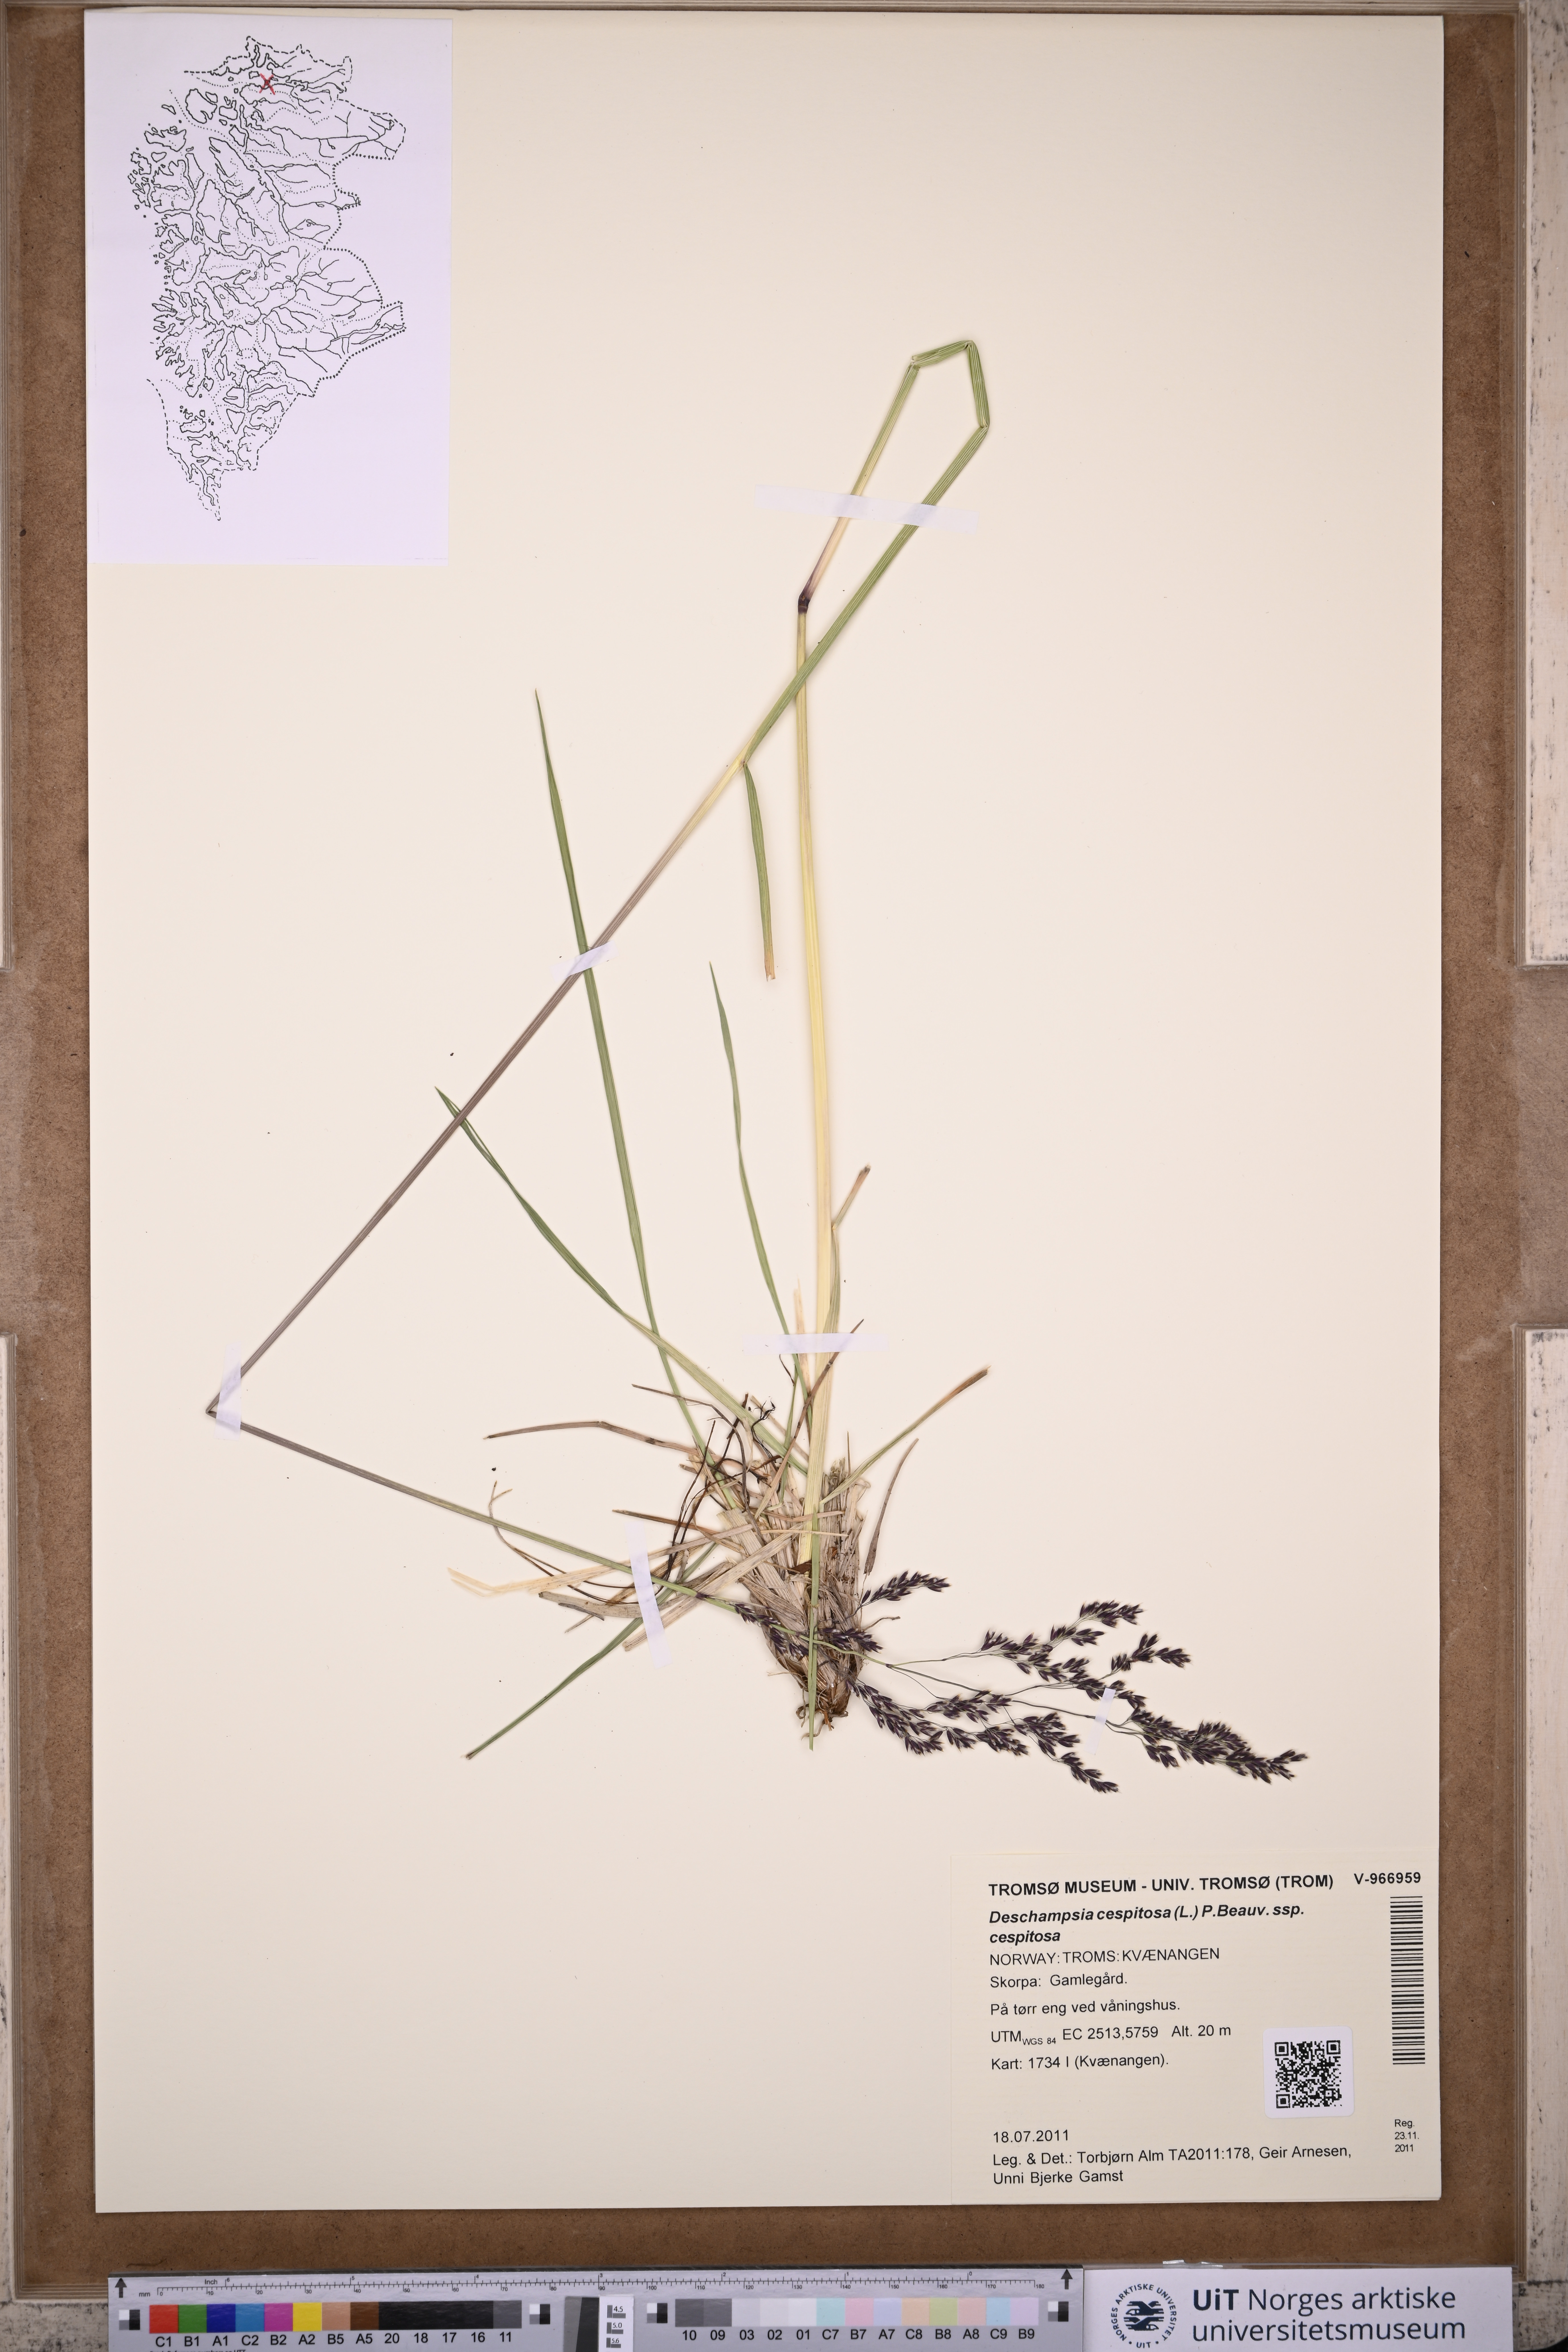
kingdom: Plantae
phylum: Tracheophyta
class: Liliopsida
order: Poales
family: Poaceae
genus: Deschampsia
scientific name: Deschampsia cespitosa
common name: Tufted hair-grass
